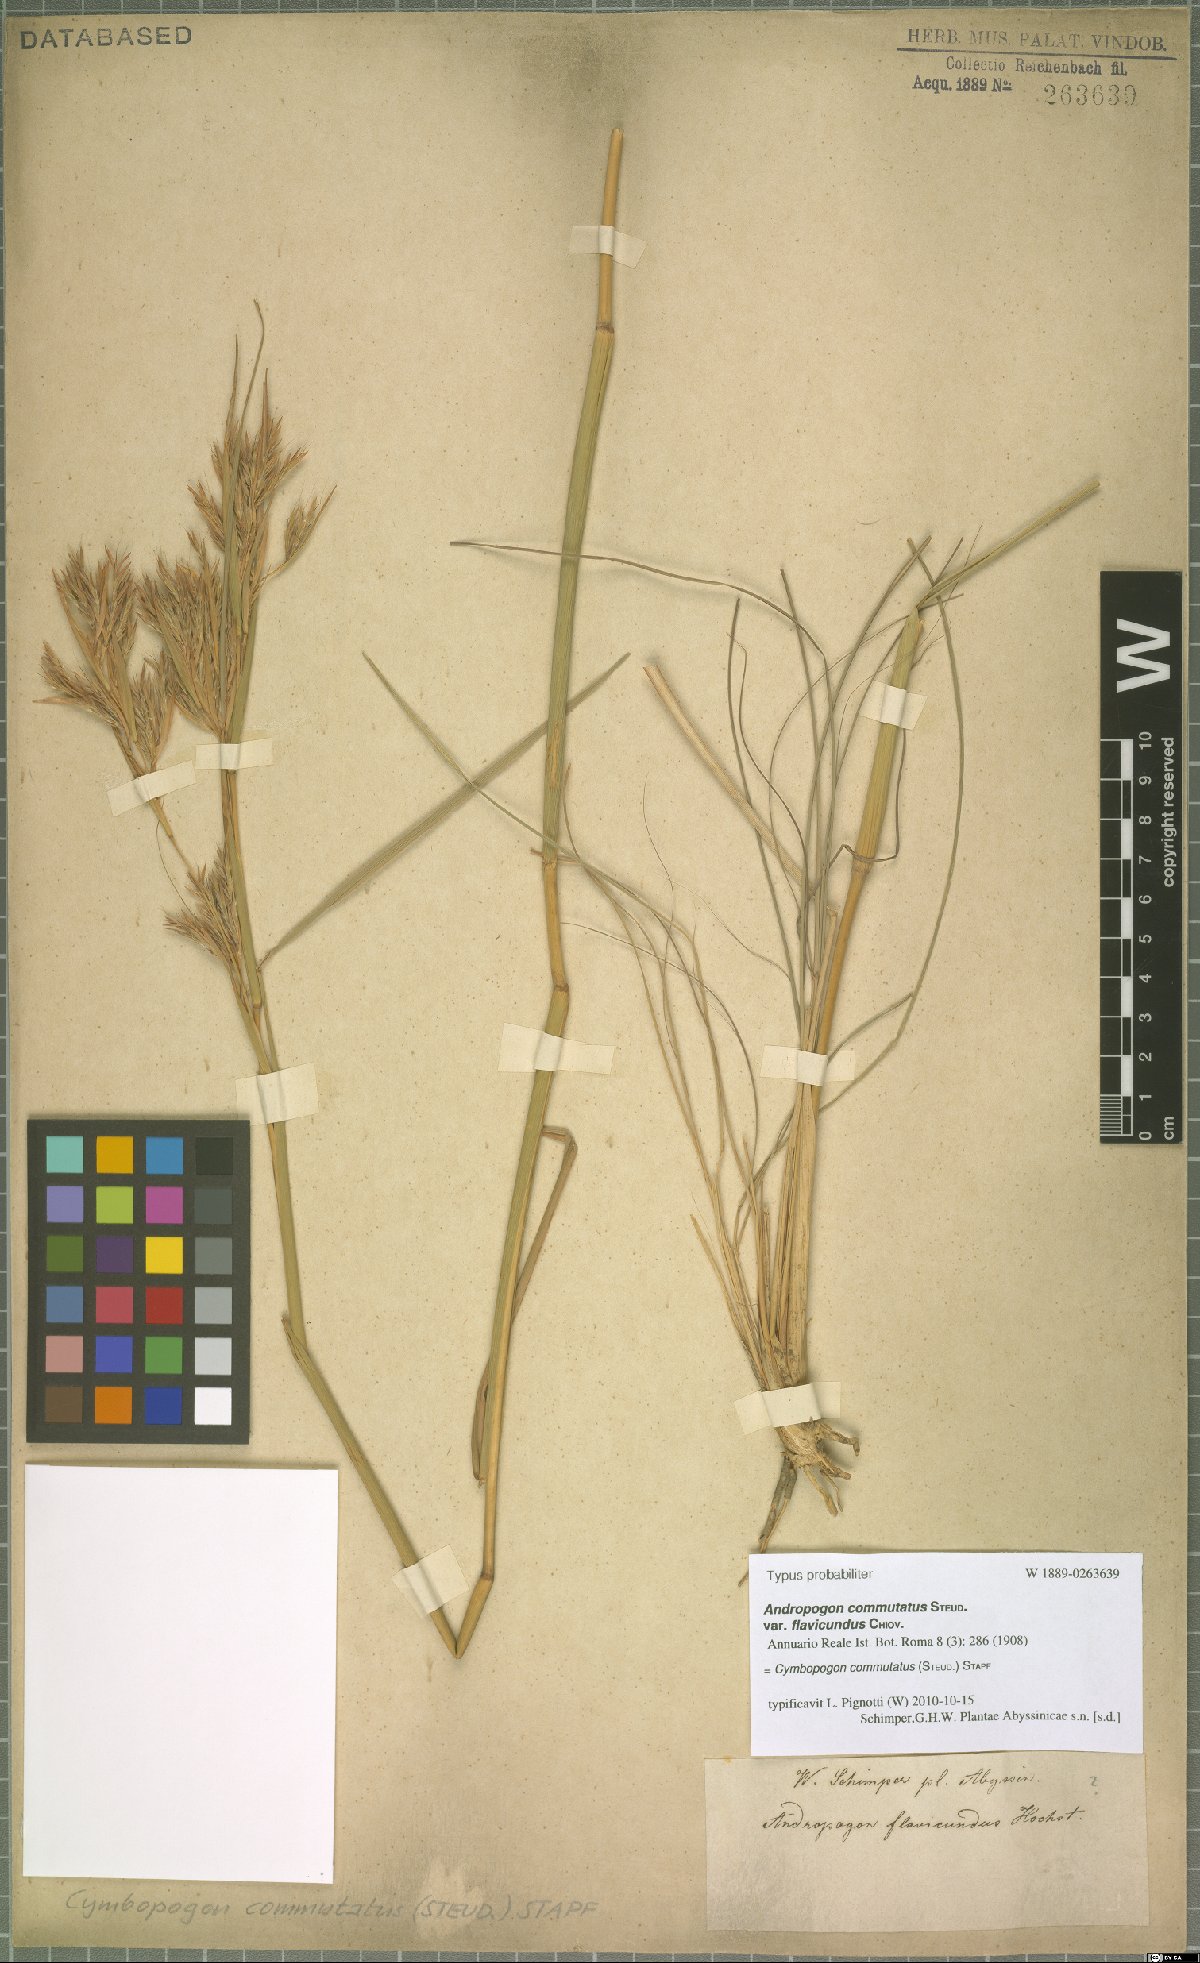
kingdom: Plantae
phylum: Tracheophyta
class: Liliopsida
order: Poales
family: Poaceae
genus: Cymbopogon
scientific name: Cymbopogon commutatus
